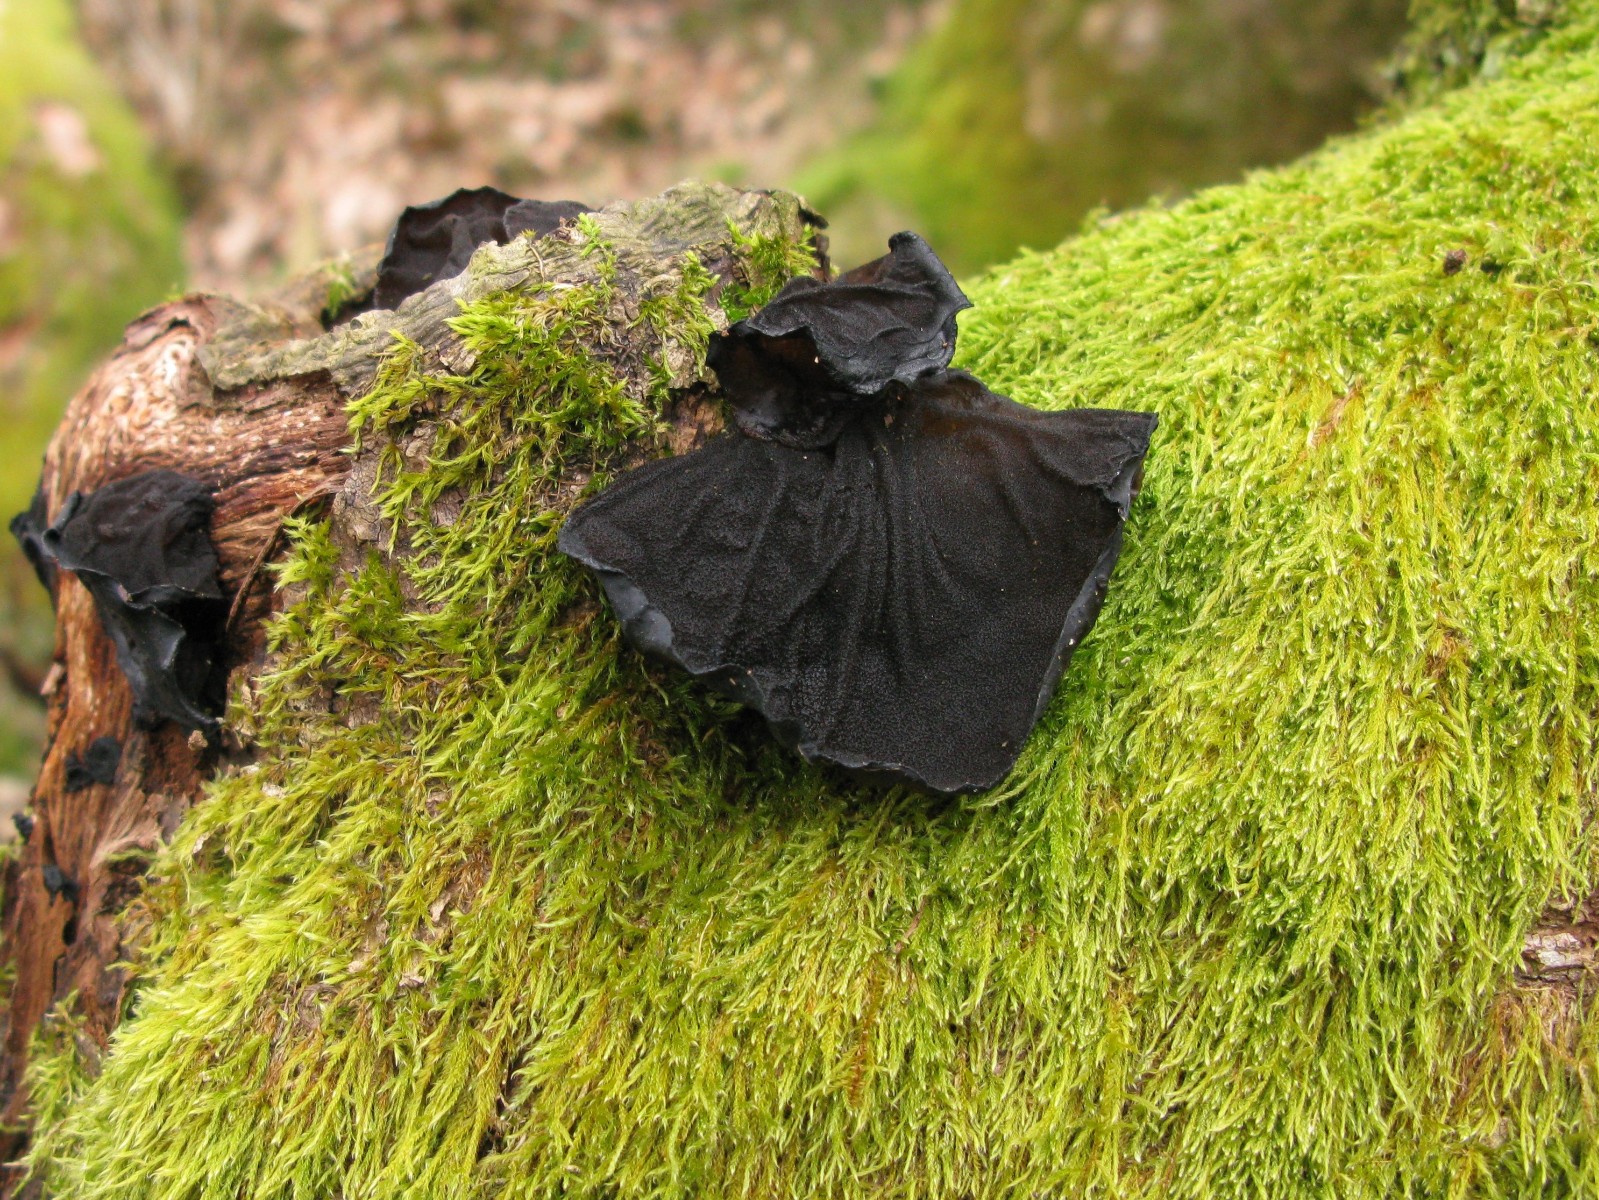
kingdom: Fungi
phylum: Basidiomycota
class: Agaricomycetes
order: Auriculariales
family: Auriculariaceae
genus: Exidia
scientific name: Exidia glandulosa
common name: ege-bævretop
